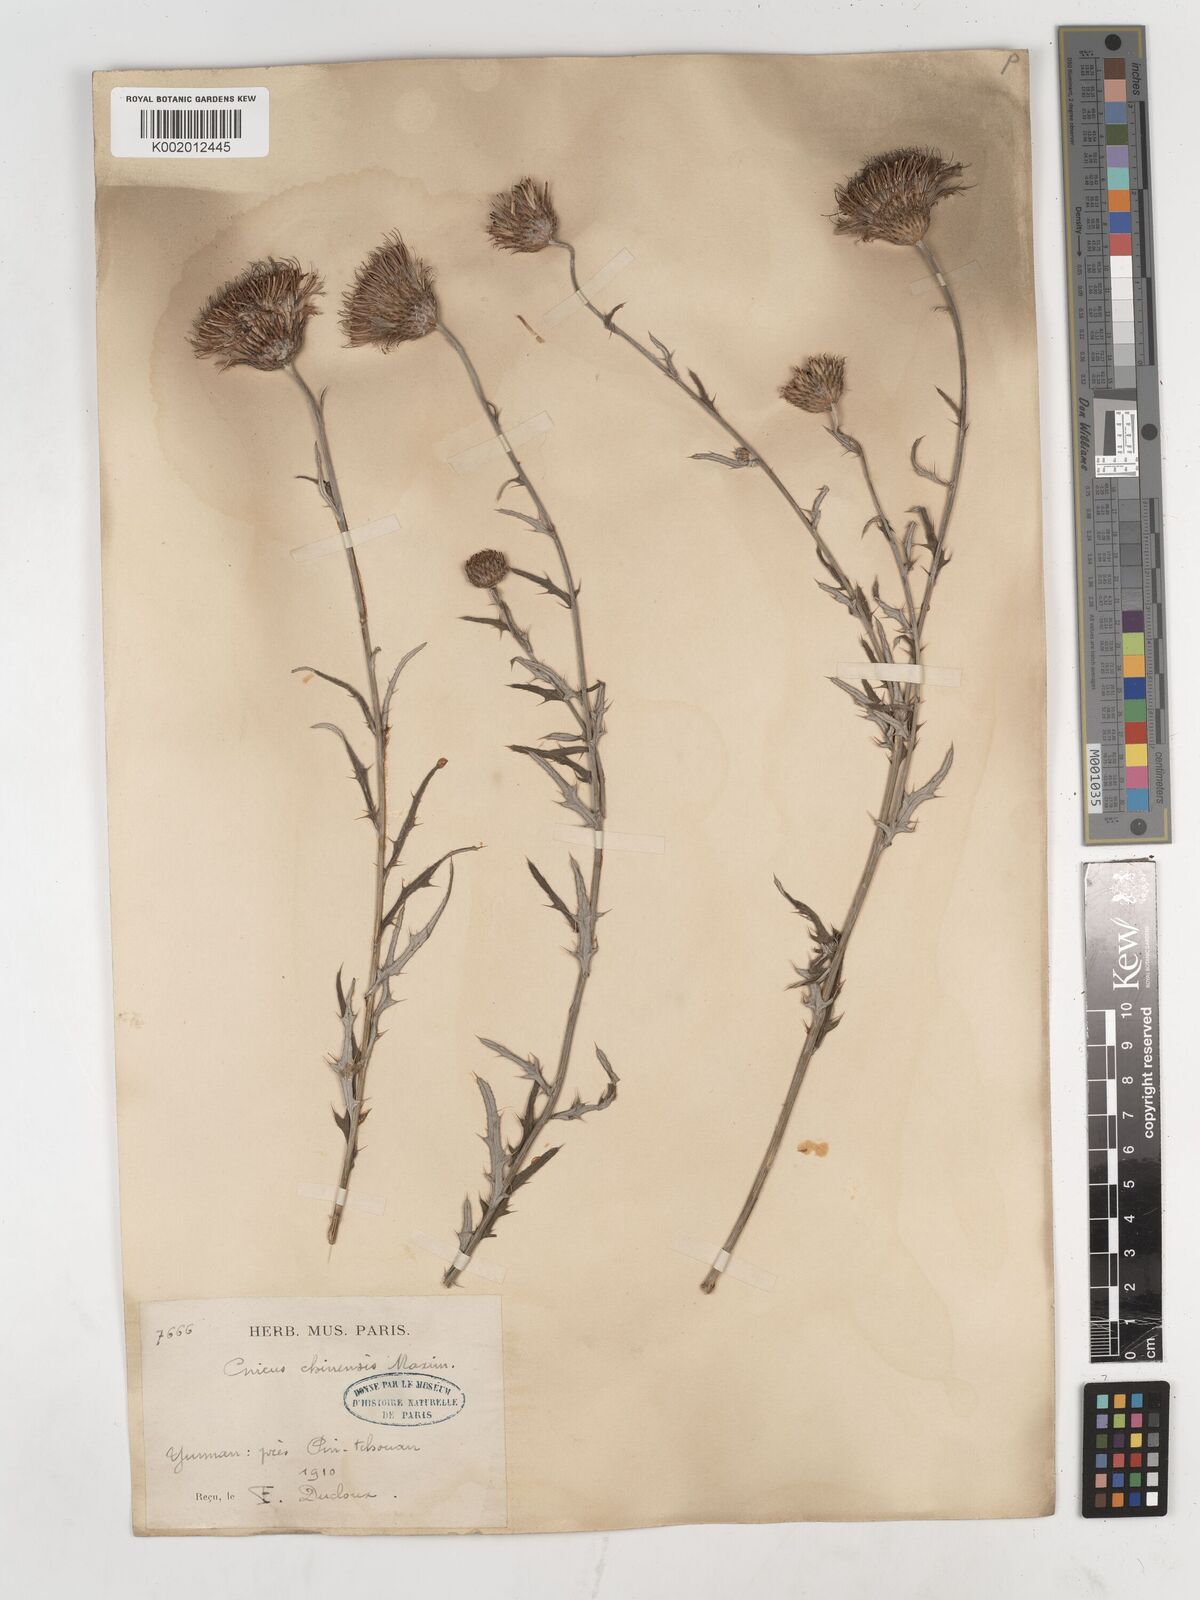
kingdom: Plantae
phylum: Tracheophyta
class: Magnoliopsida
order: Asterales
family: Asteraceae
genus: Lophiolepis
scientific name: Lophiolepis veruta
